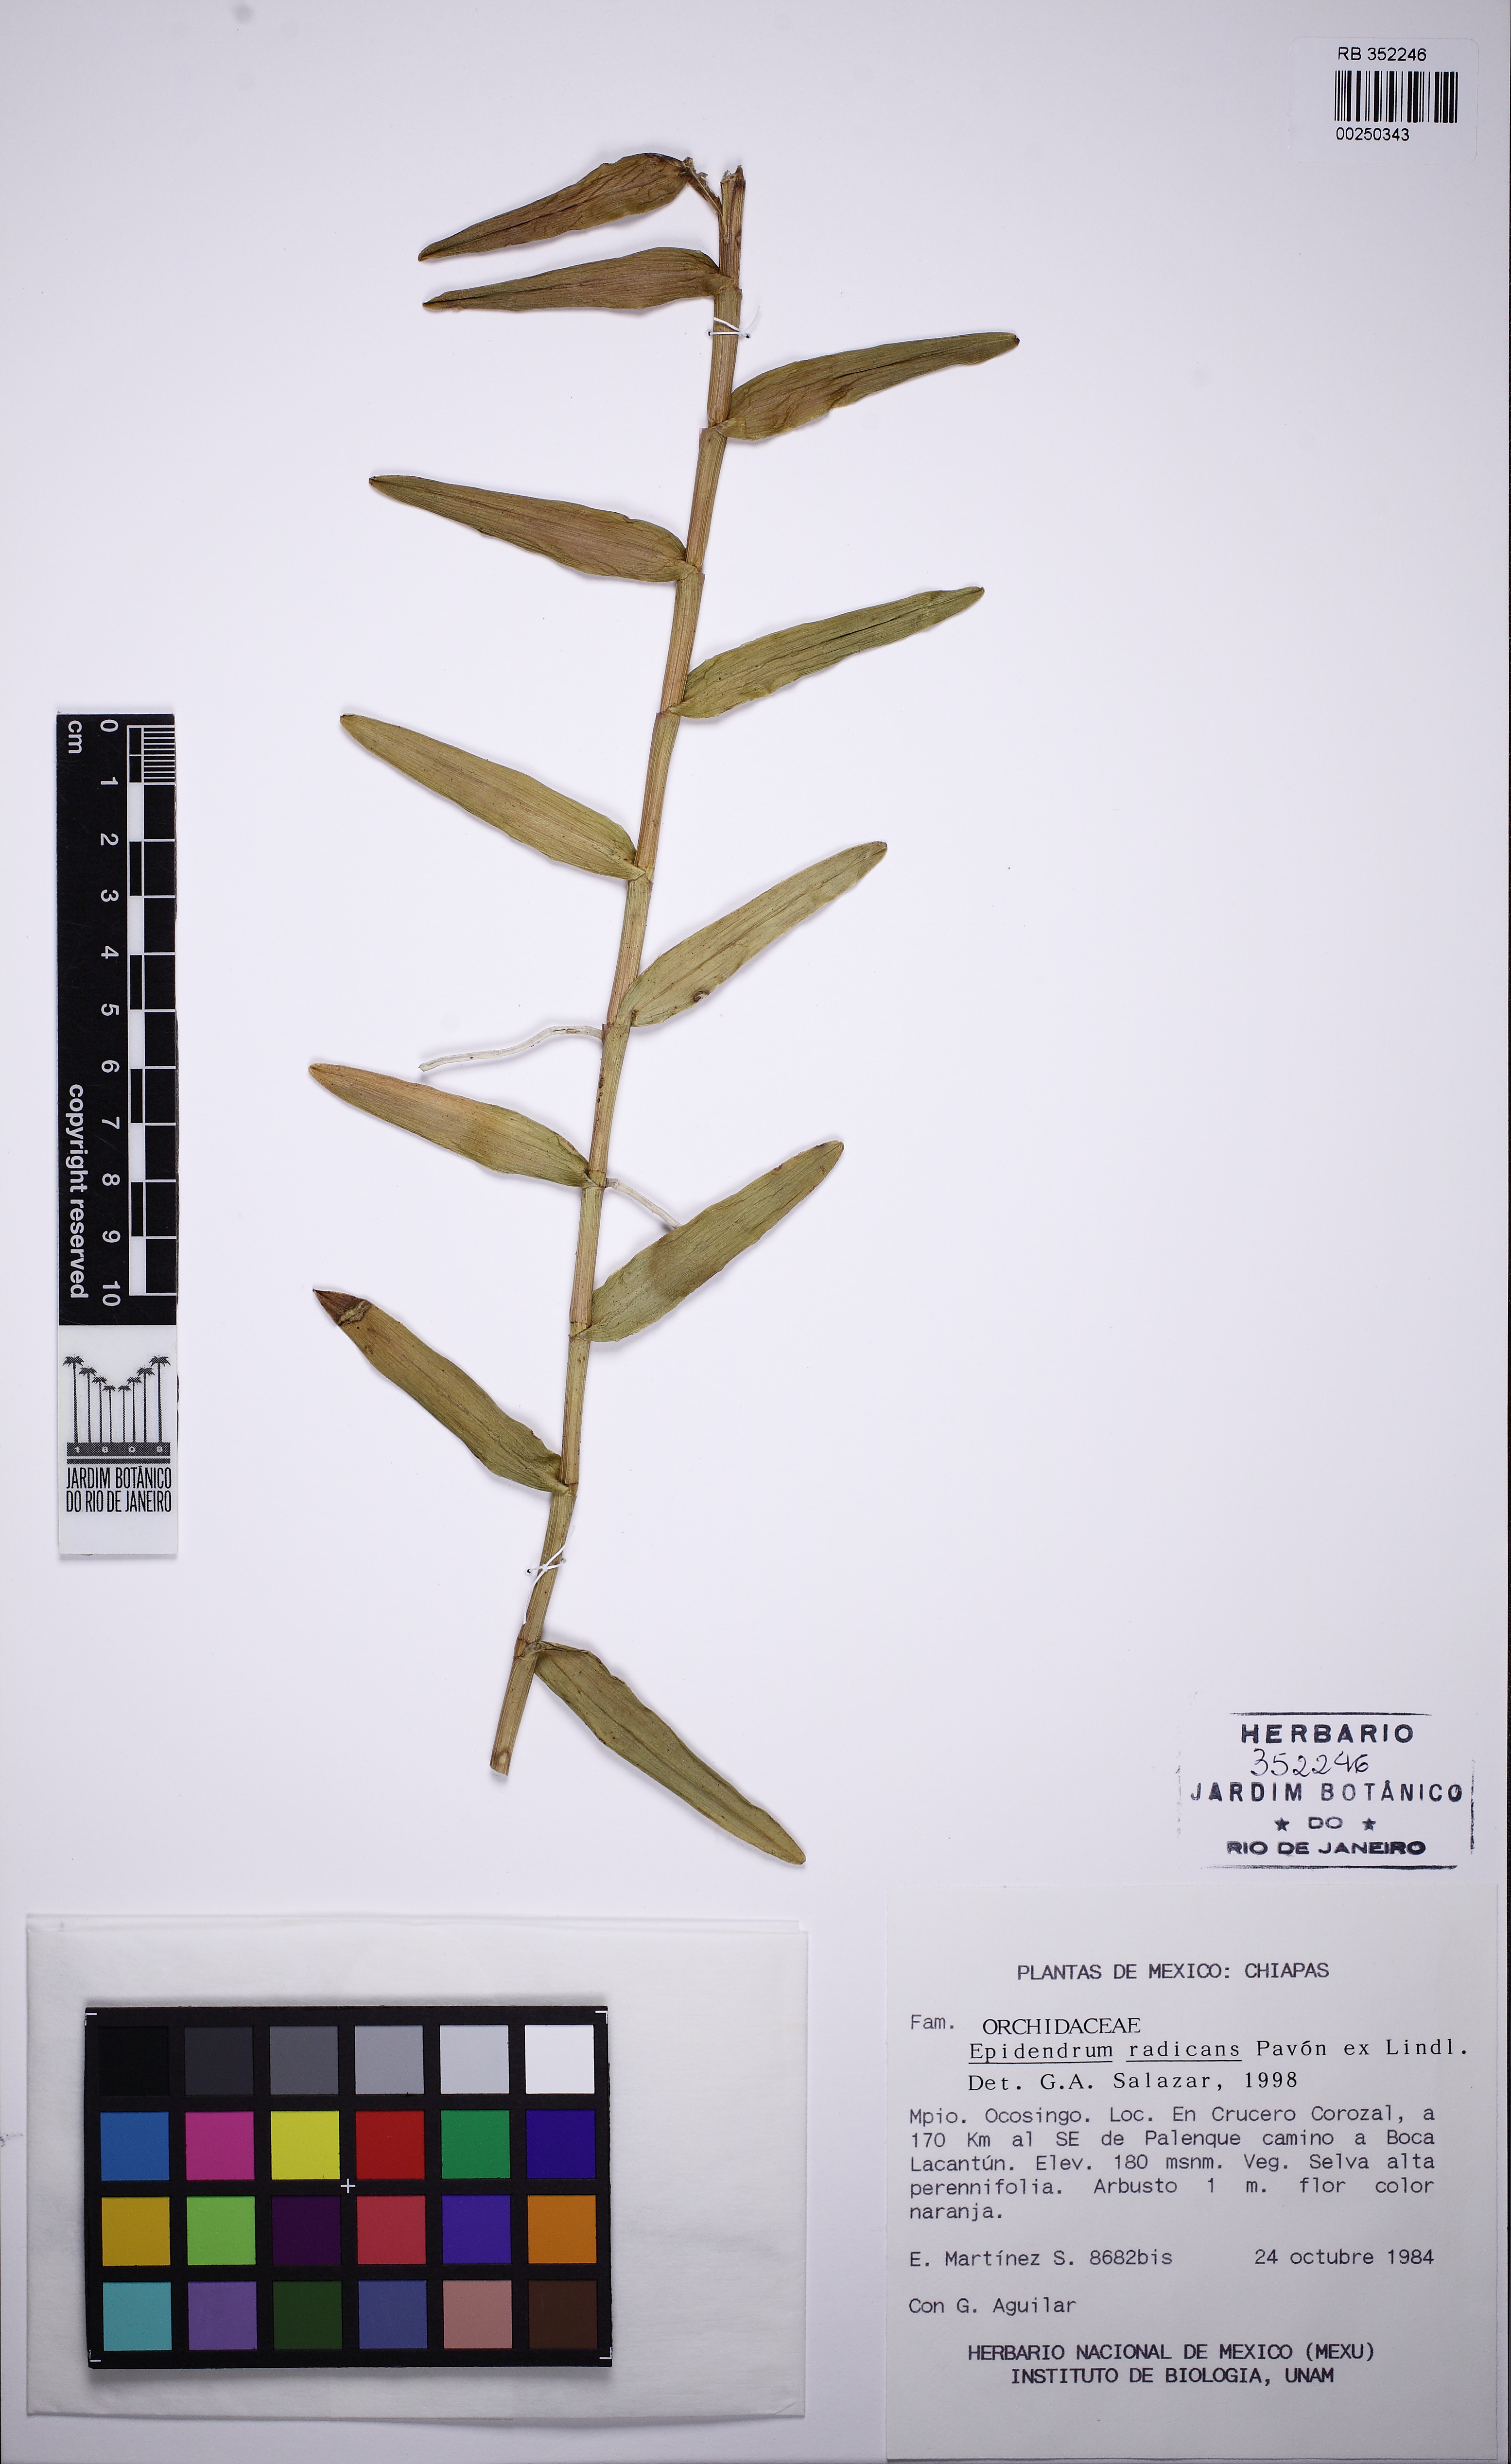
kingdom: Plantae
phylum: Tracheophyta
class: Liliopsida
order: Asparagales
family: Orchidaceae
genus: Epidendrum
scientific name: Epidendrum radicans
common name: Fire star orchid
